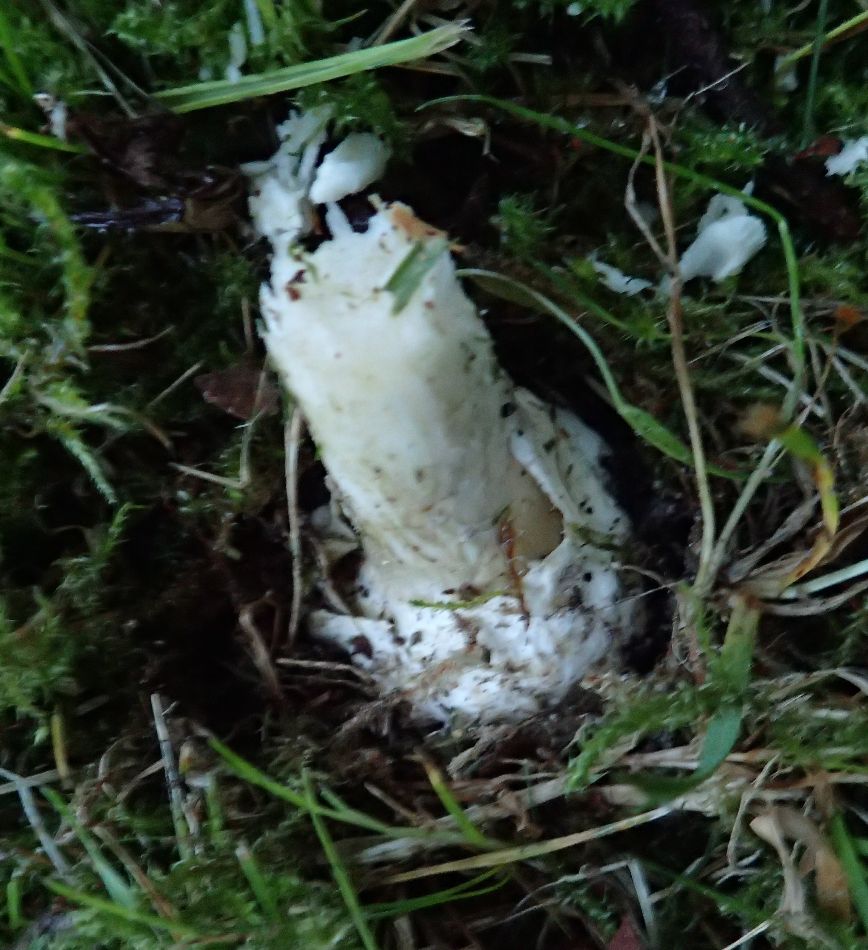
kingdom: Fungi
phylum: Basidiomycota
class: Agaricomycetes
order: Agaricales
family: Amanitaceae
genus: Amanita
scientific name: Amanita phalloides
